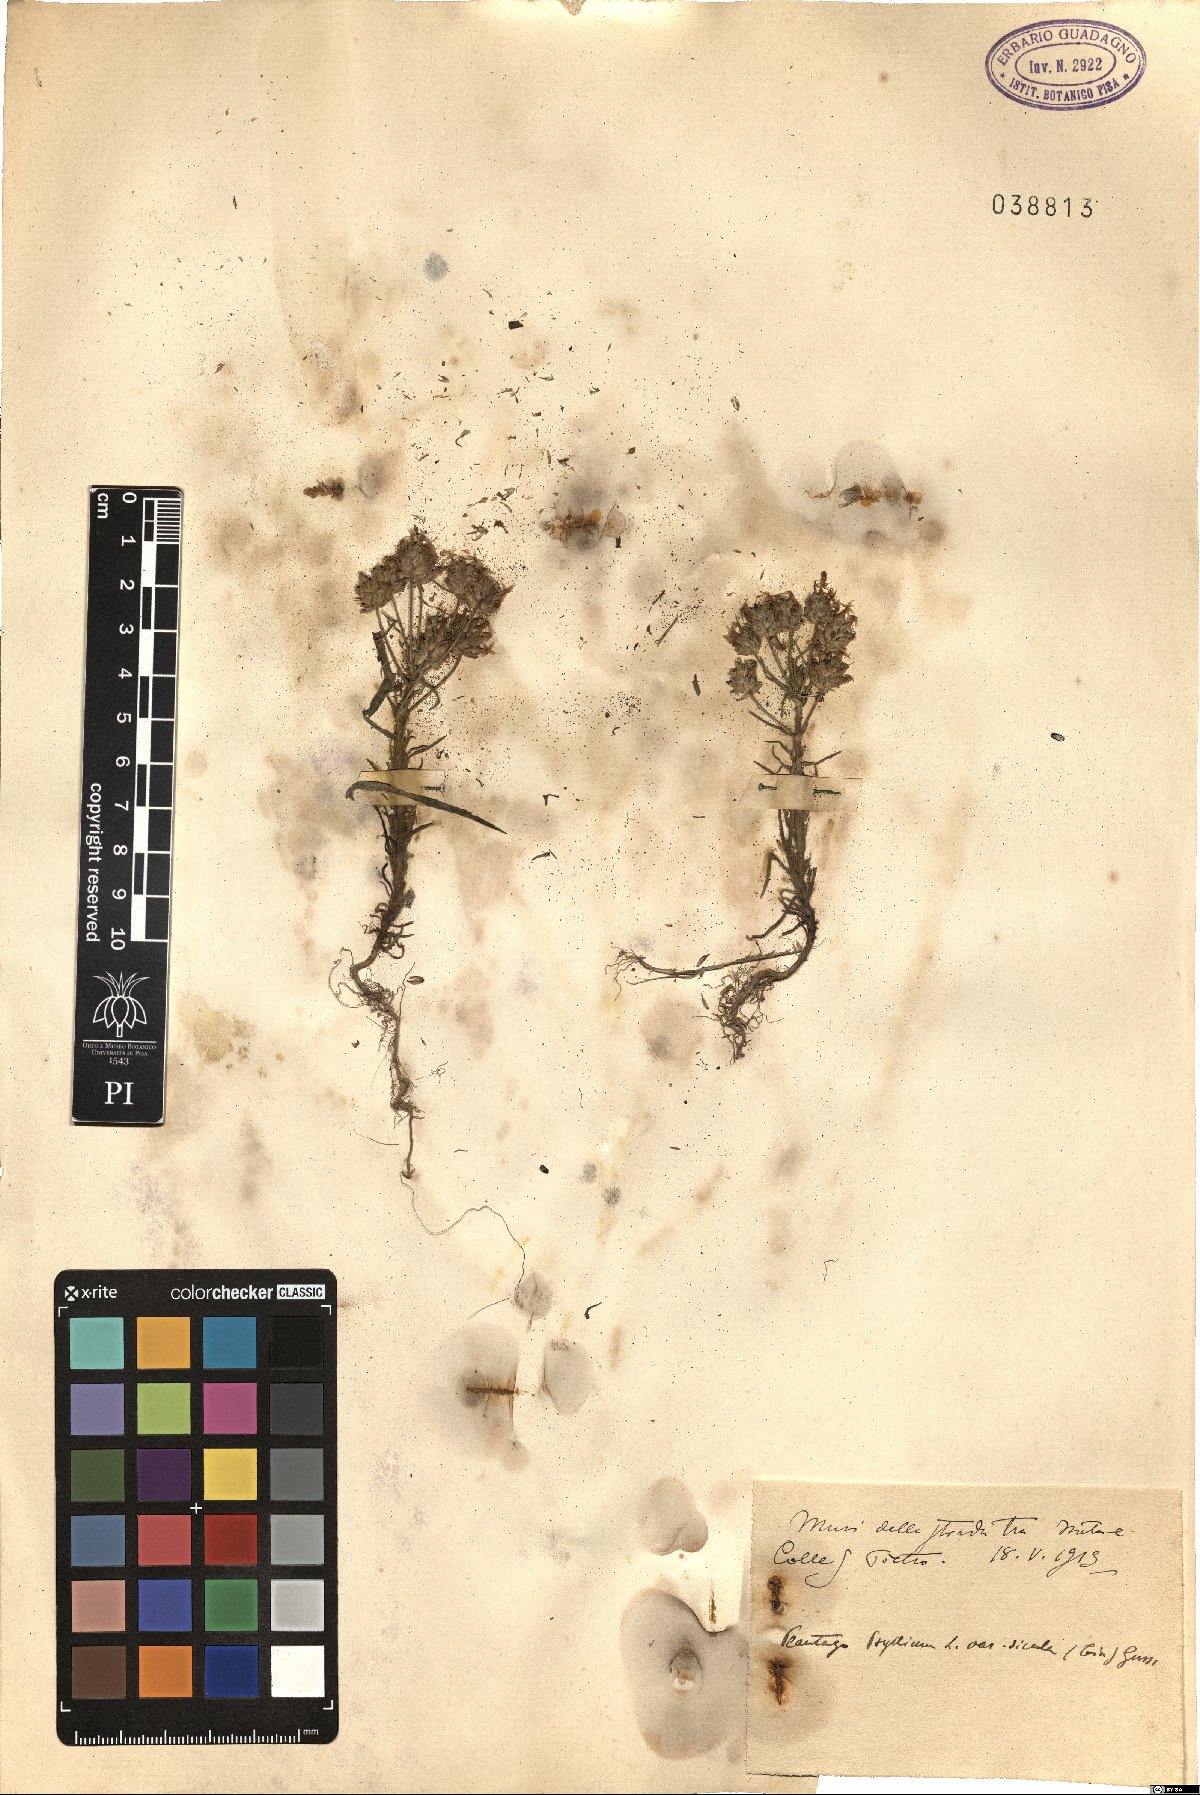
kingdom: Plantae
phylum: Tracheophyta
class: Magnoliopsida
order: Lamiales
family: Plantaginaceae
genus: Plantago
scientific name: Plantago afra
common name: Glandular plantain
